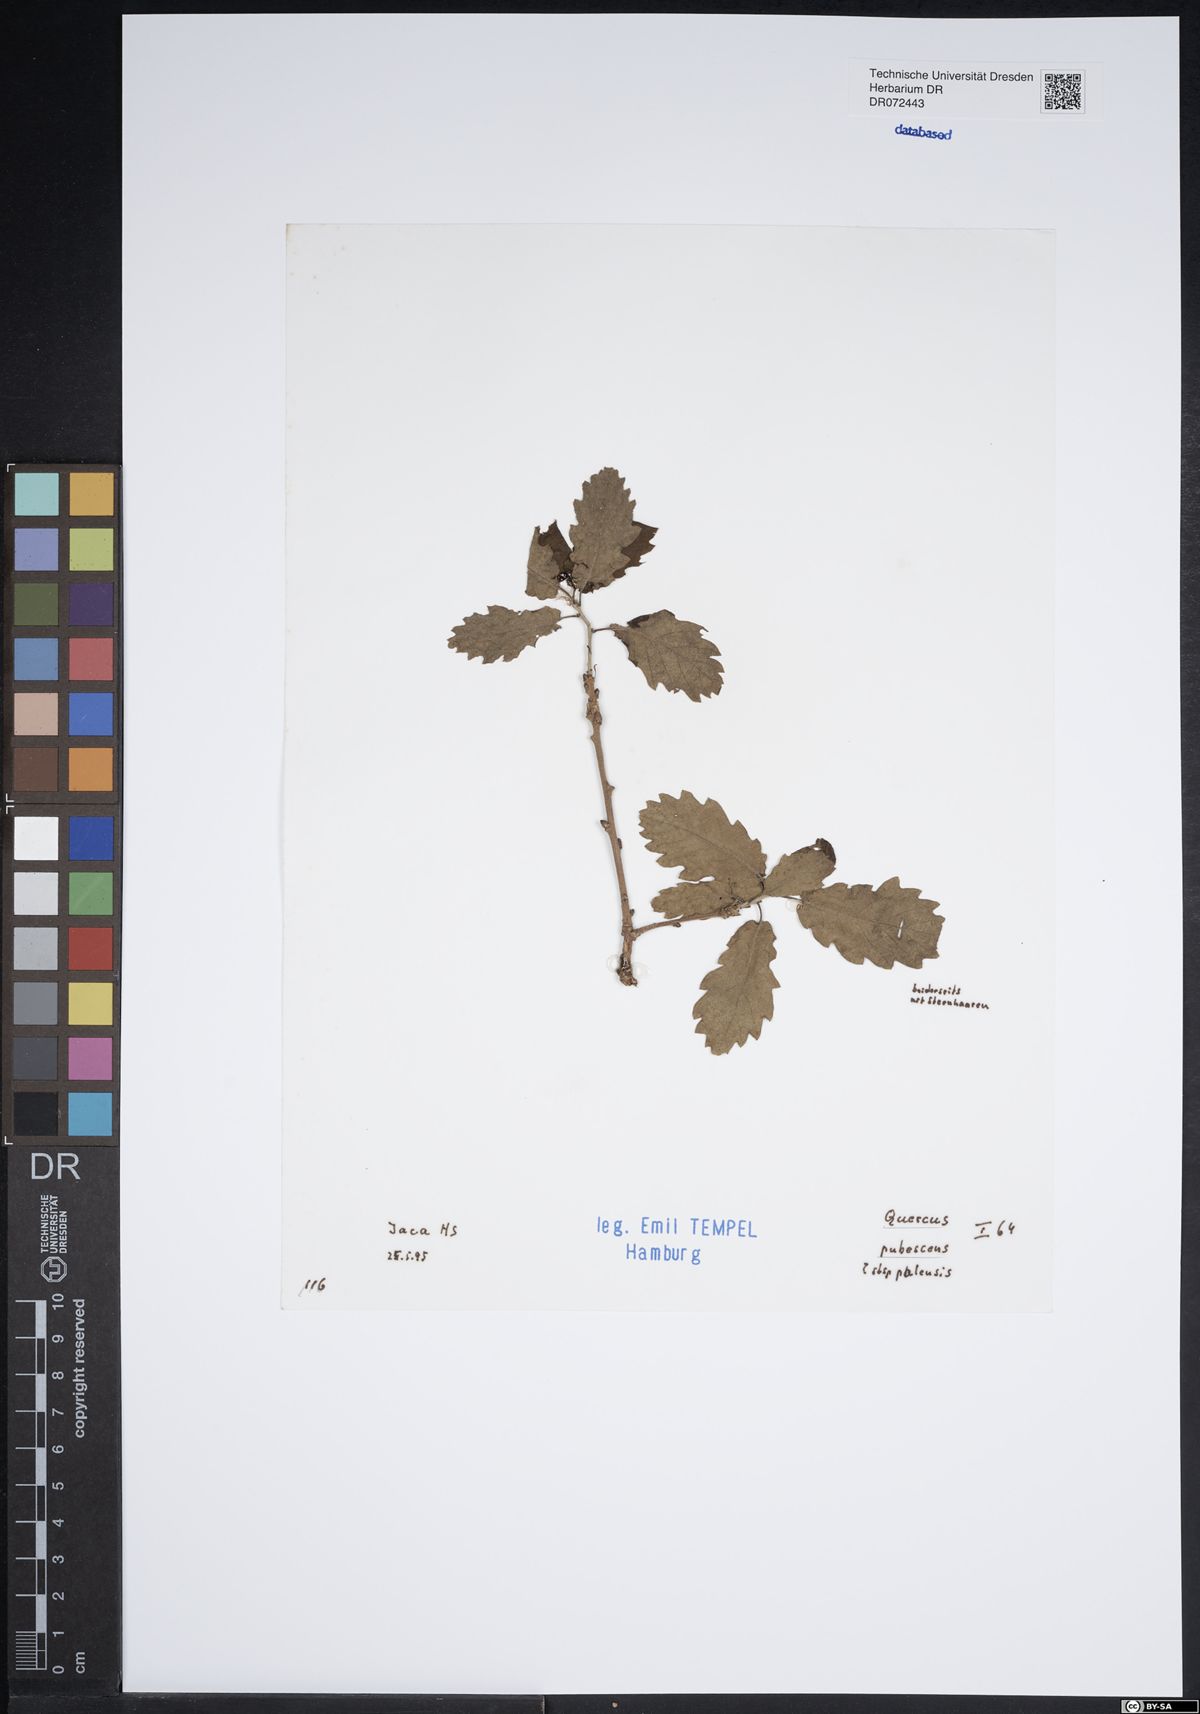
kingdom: Plantae
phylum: Tracheophyta
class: Magnoliopsida
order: Fagales
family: Fagaceae
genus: Quercus
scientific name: Quercus pubescens
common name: Downy oak
